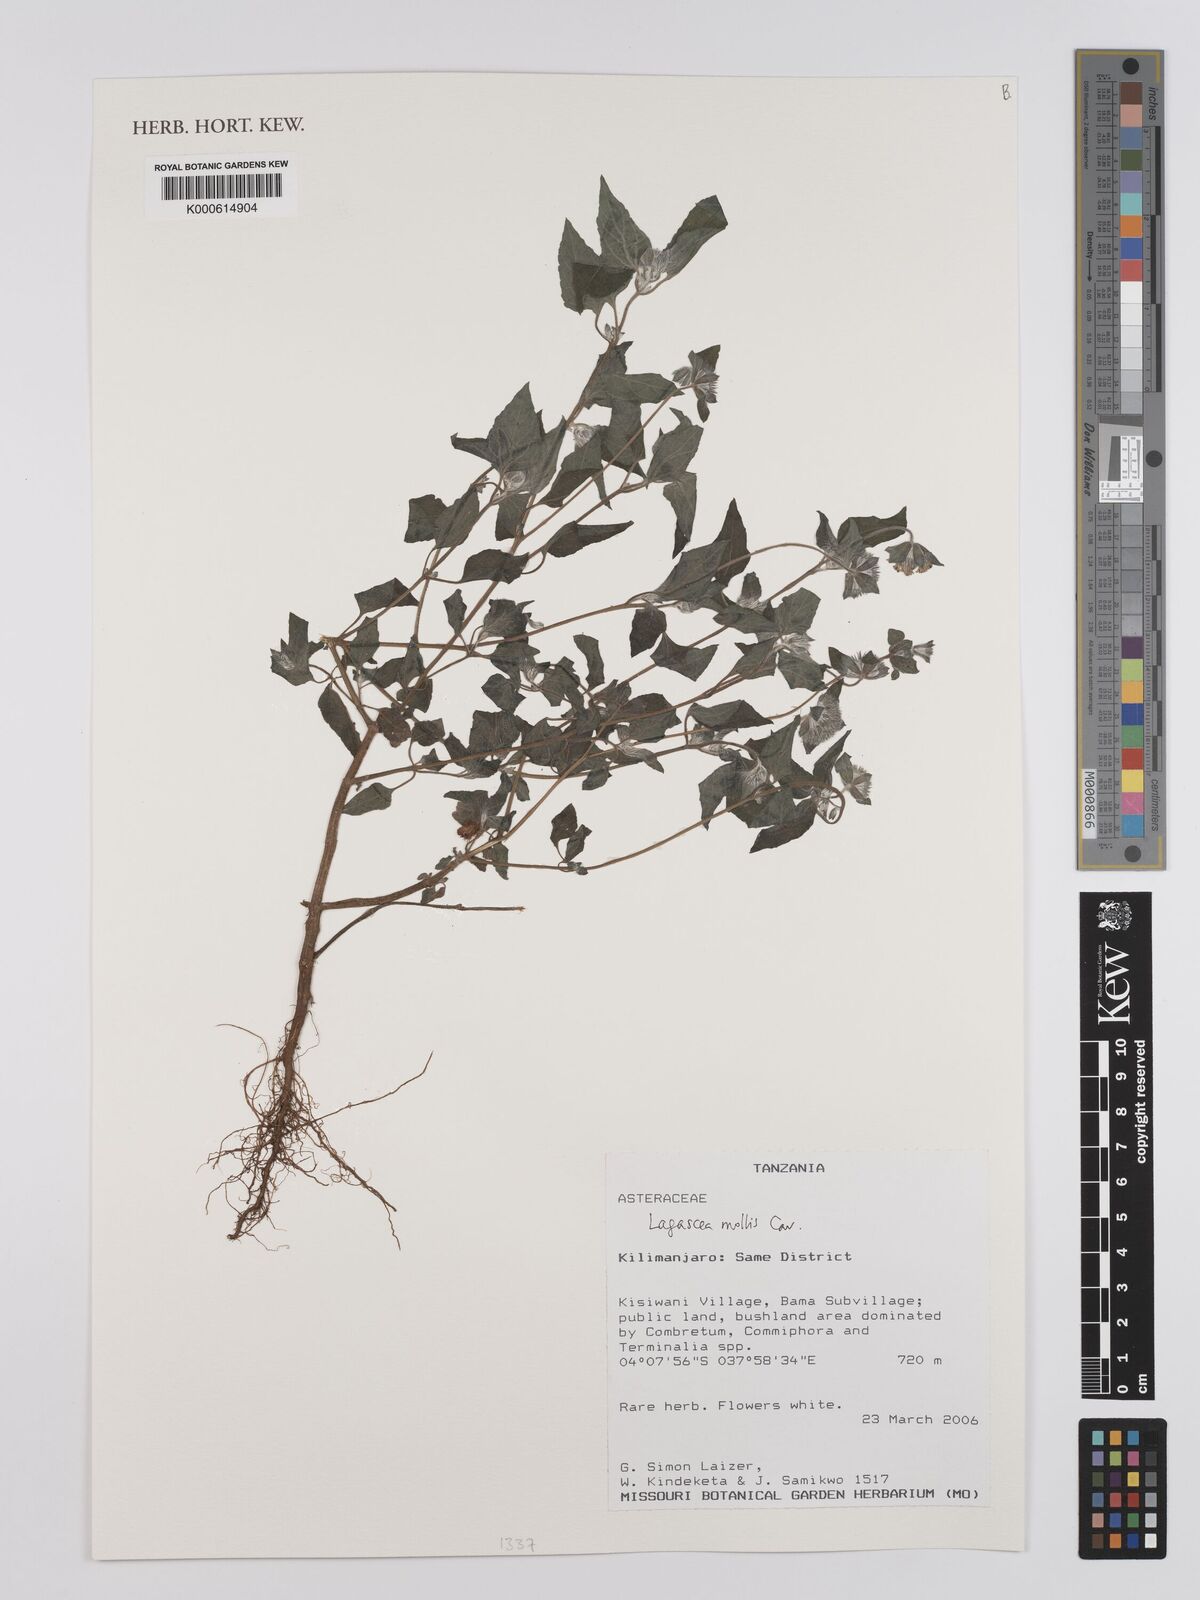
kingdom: Plantae
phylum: Tracheophyta
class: Magnoliopsida
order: Asterales
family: Asteraceae
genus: Lagascea
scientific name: Lagascea mollis
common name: Silkleaf
